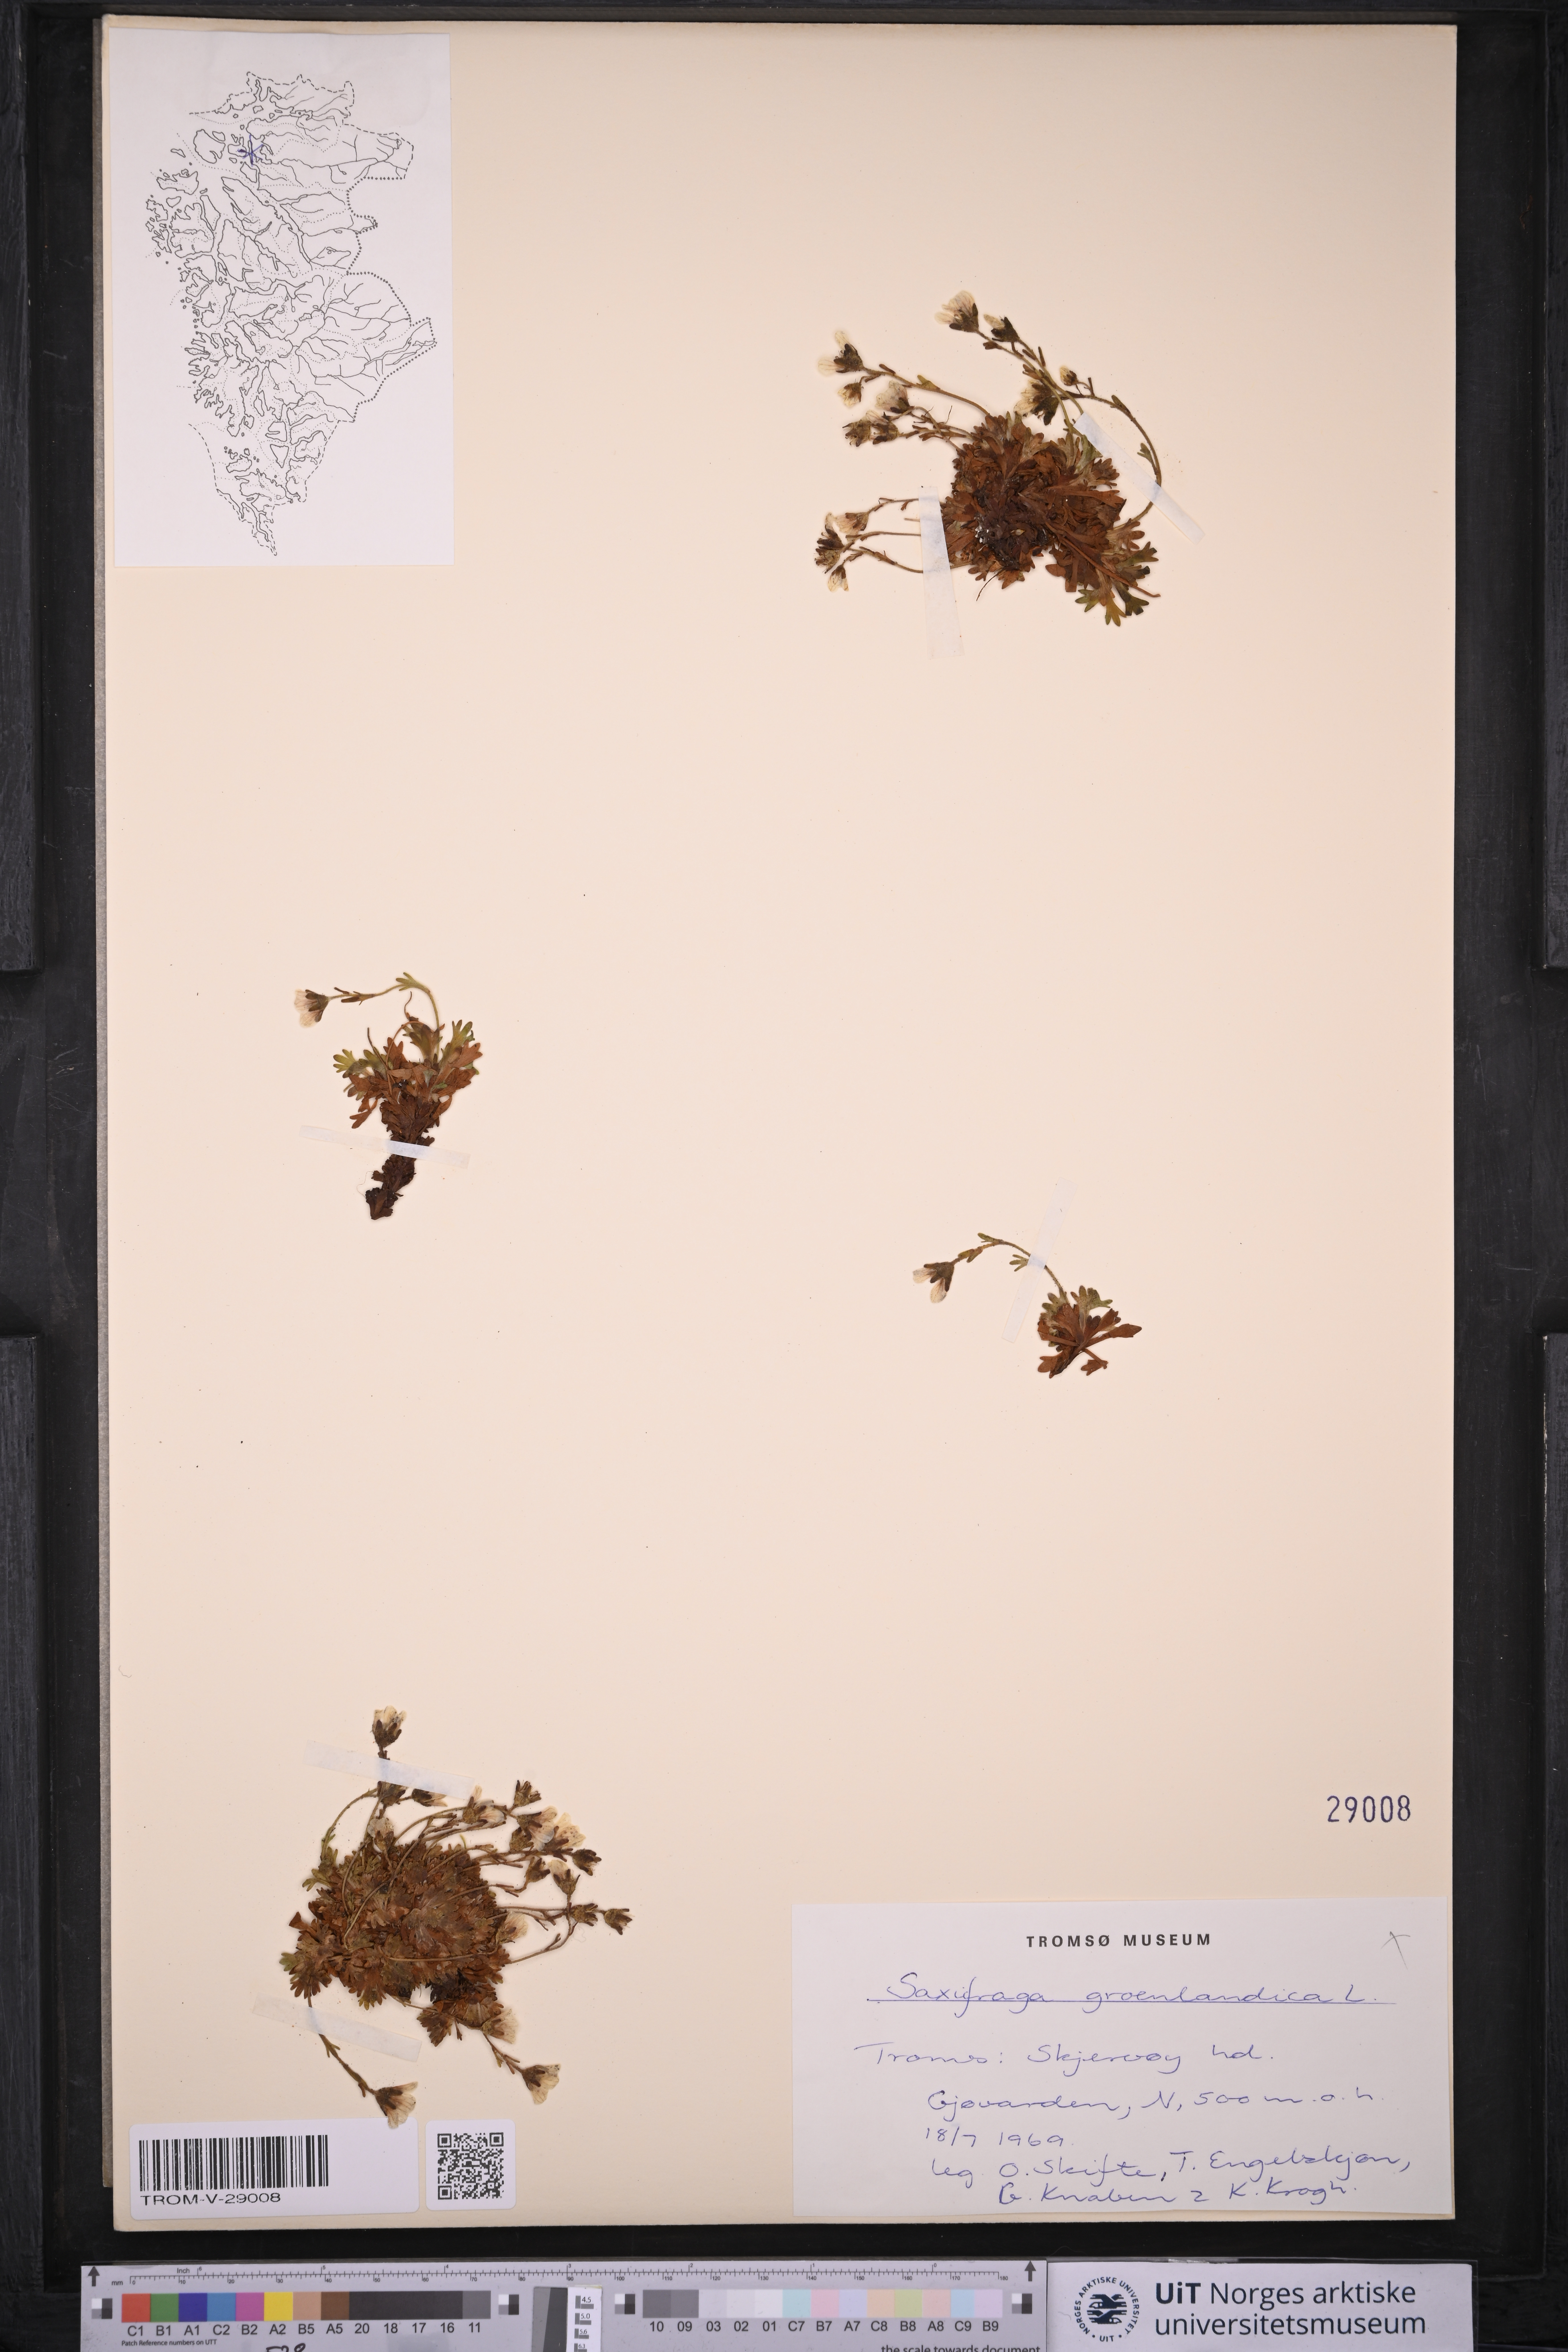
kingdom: Plantae
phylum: Tracheophyta
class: Magnoliopsida
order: Saxifragales
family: Saxifragaceae
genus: Saxifraga
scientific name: Saxifraga cespitosa
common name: Tufted saxifrage
